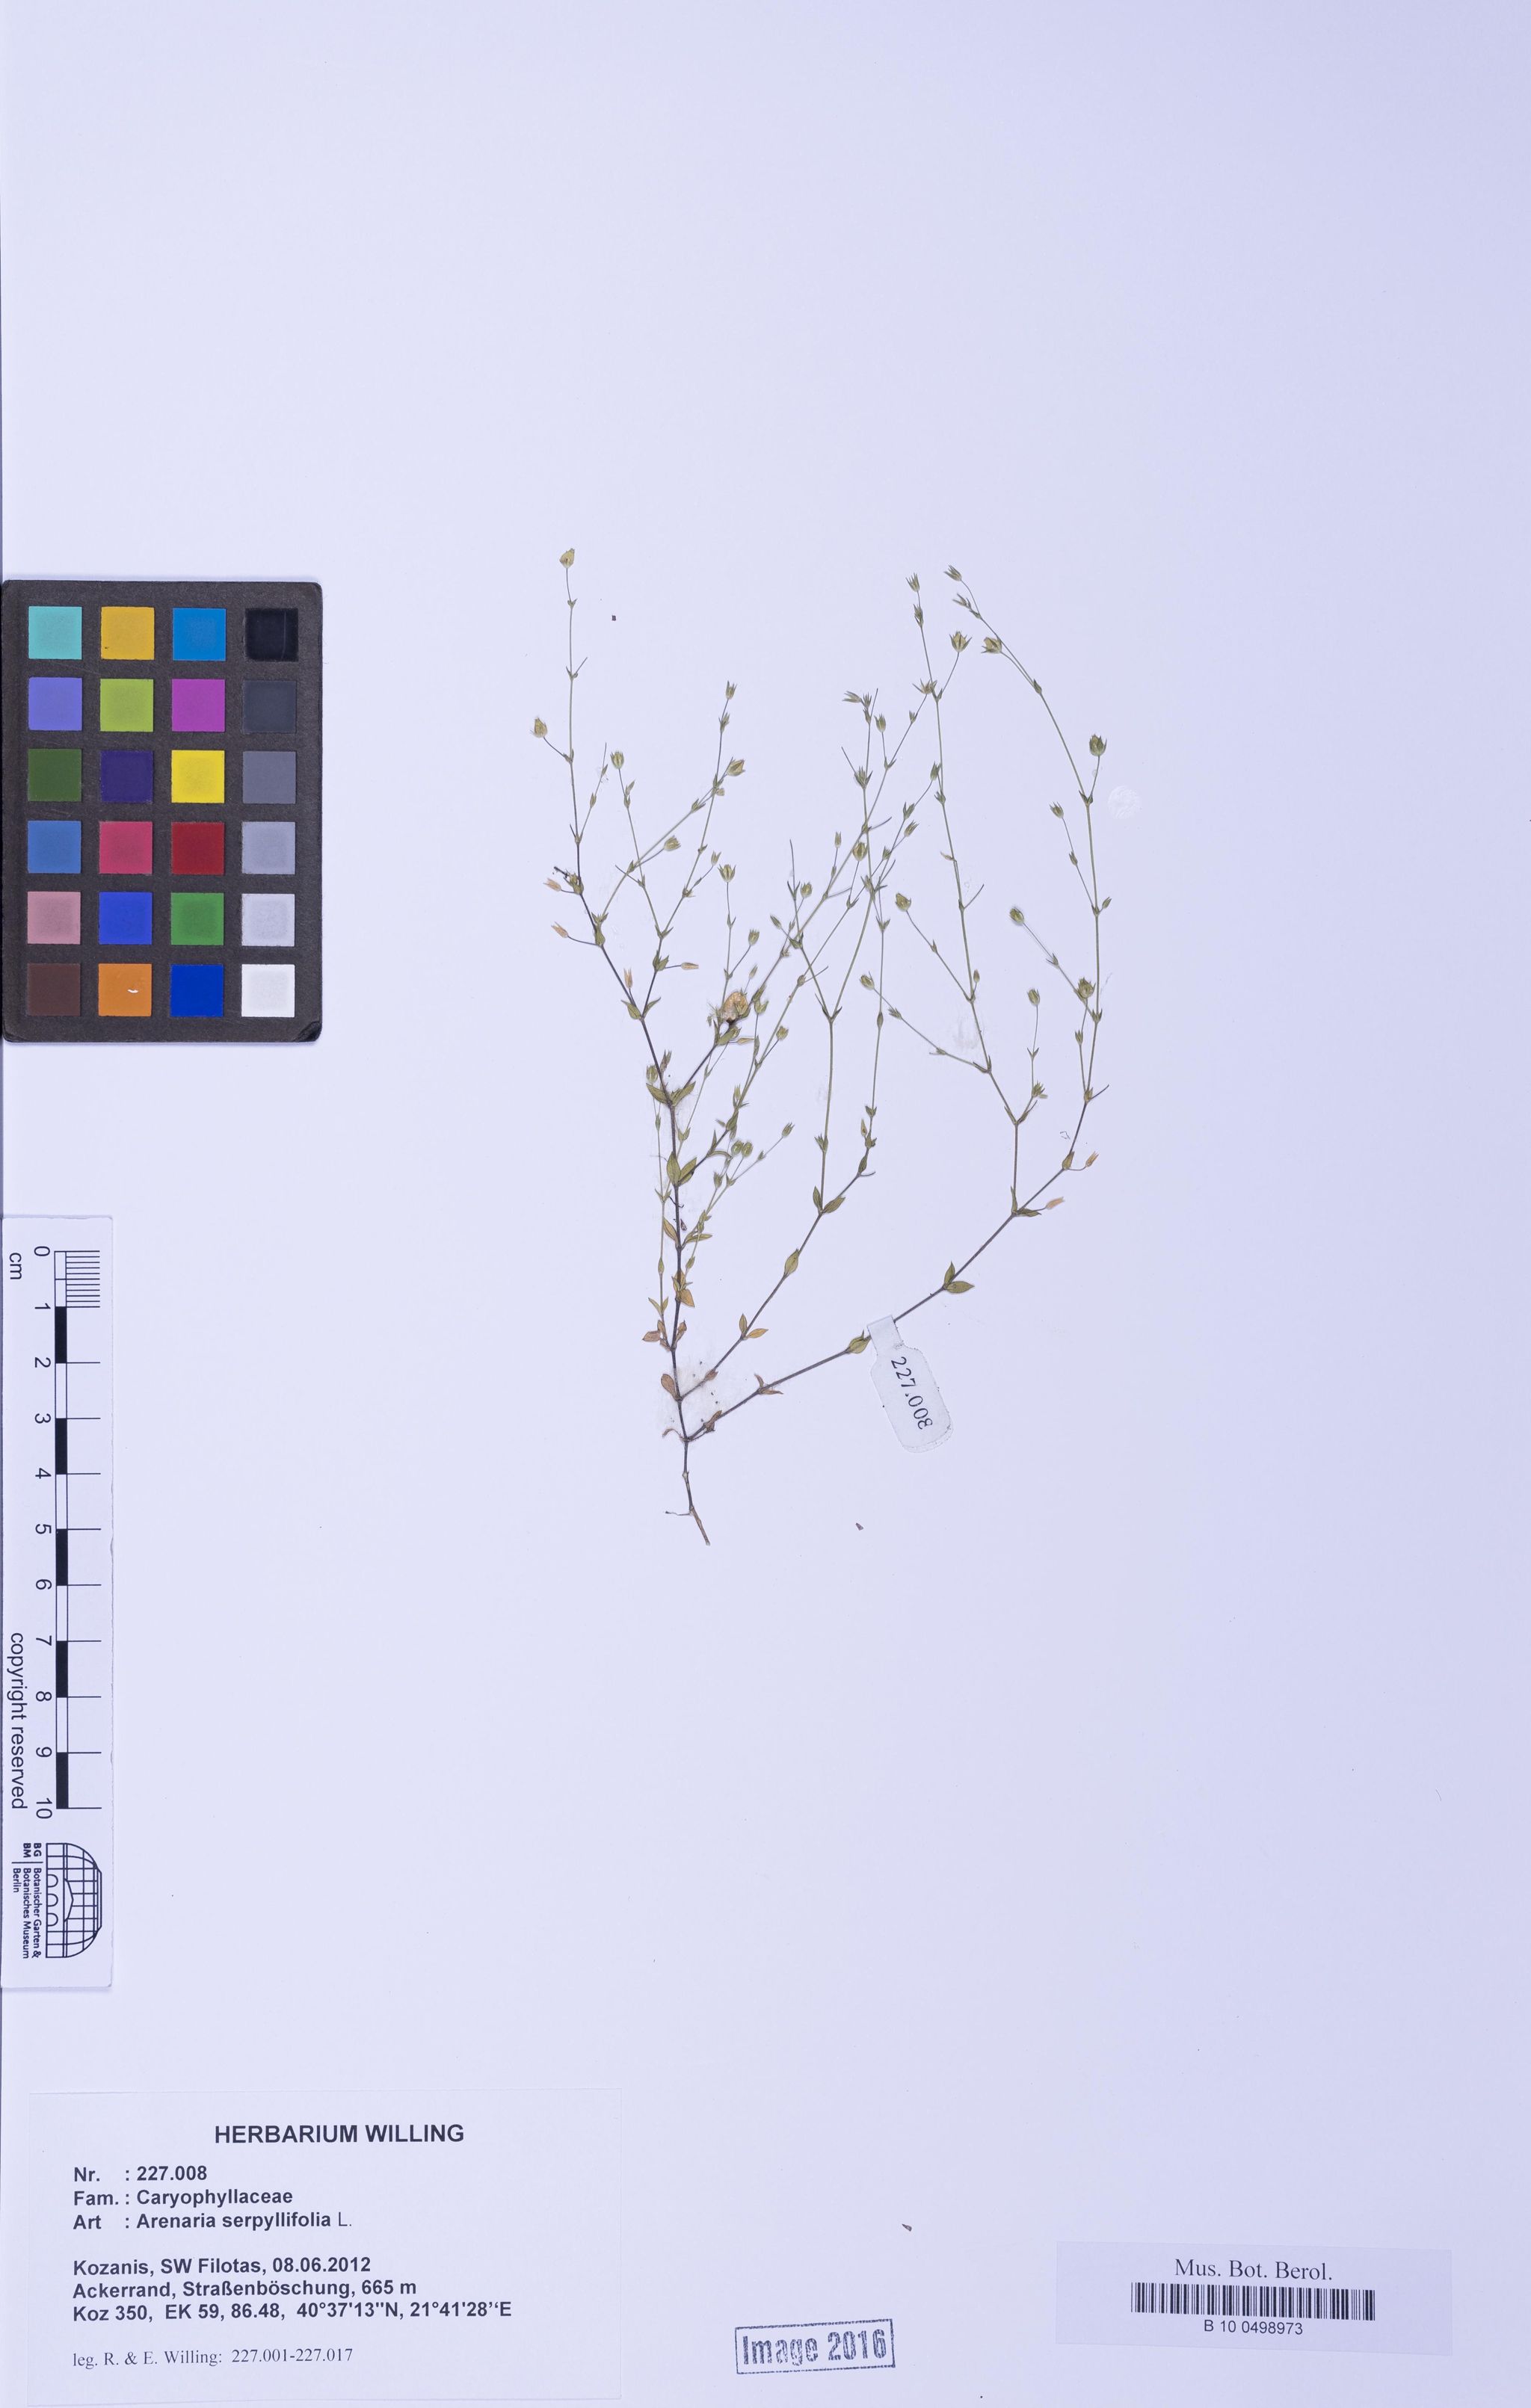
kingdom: Plantae
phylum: Tracheophyta
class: Magnoliopsida
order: Caryophyllales
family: Caryophyllaceae
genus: Arenaria
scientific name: Arenaria serpyllifolia
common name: Thyme-leaved sandwort
